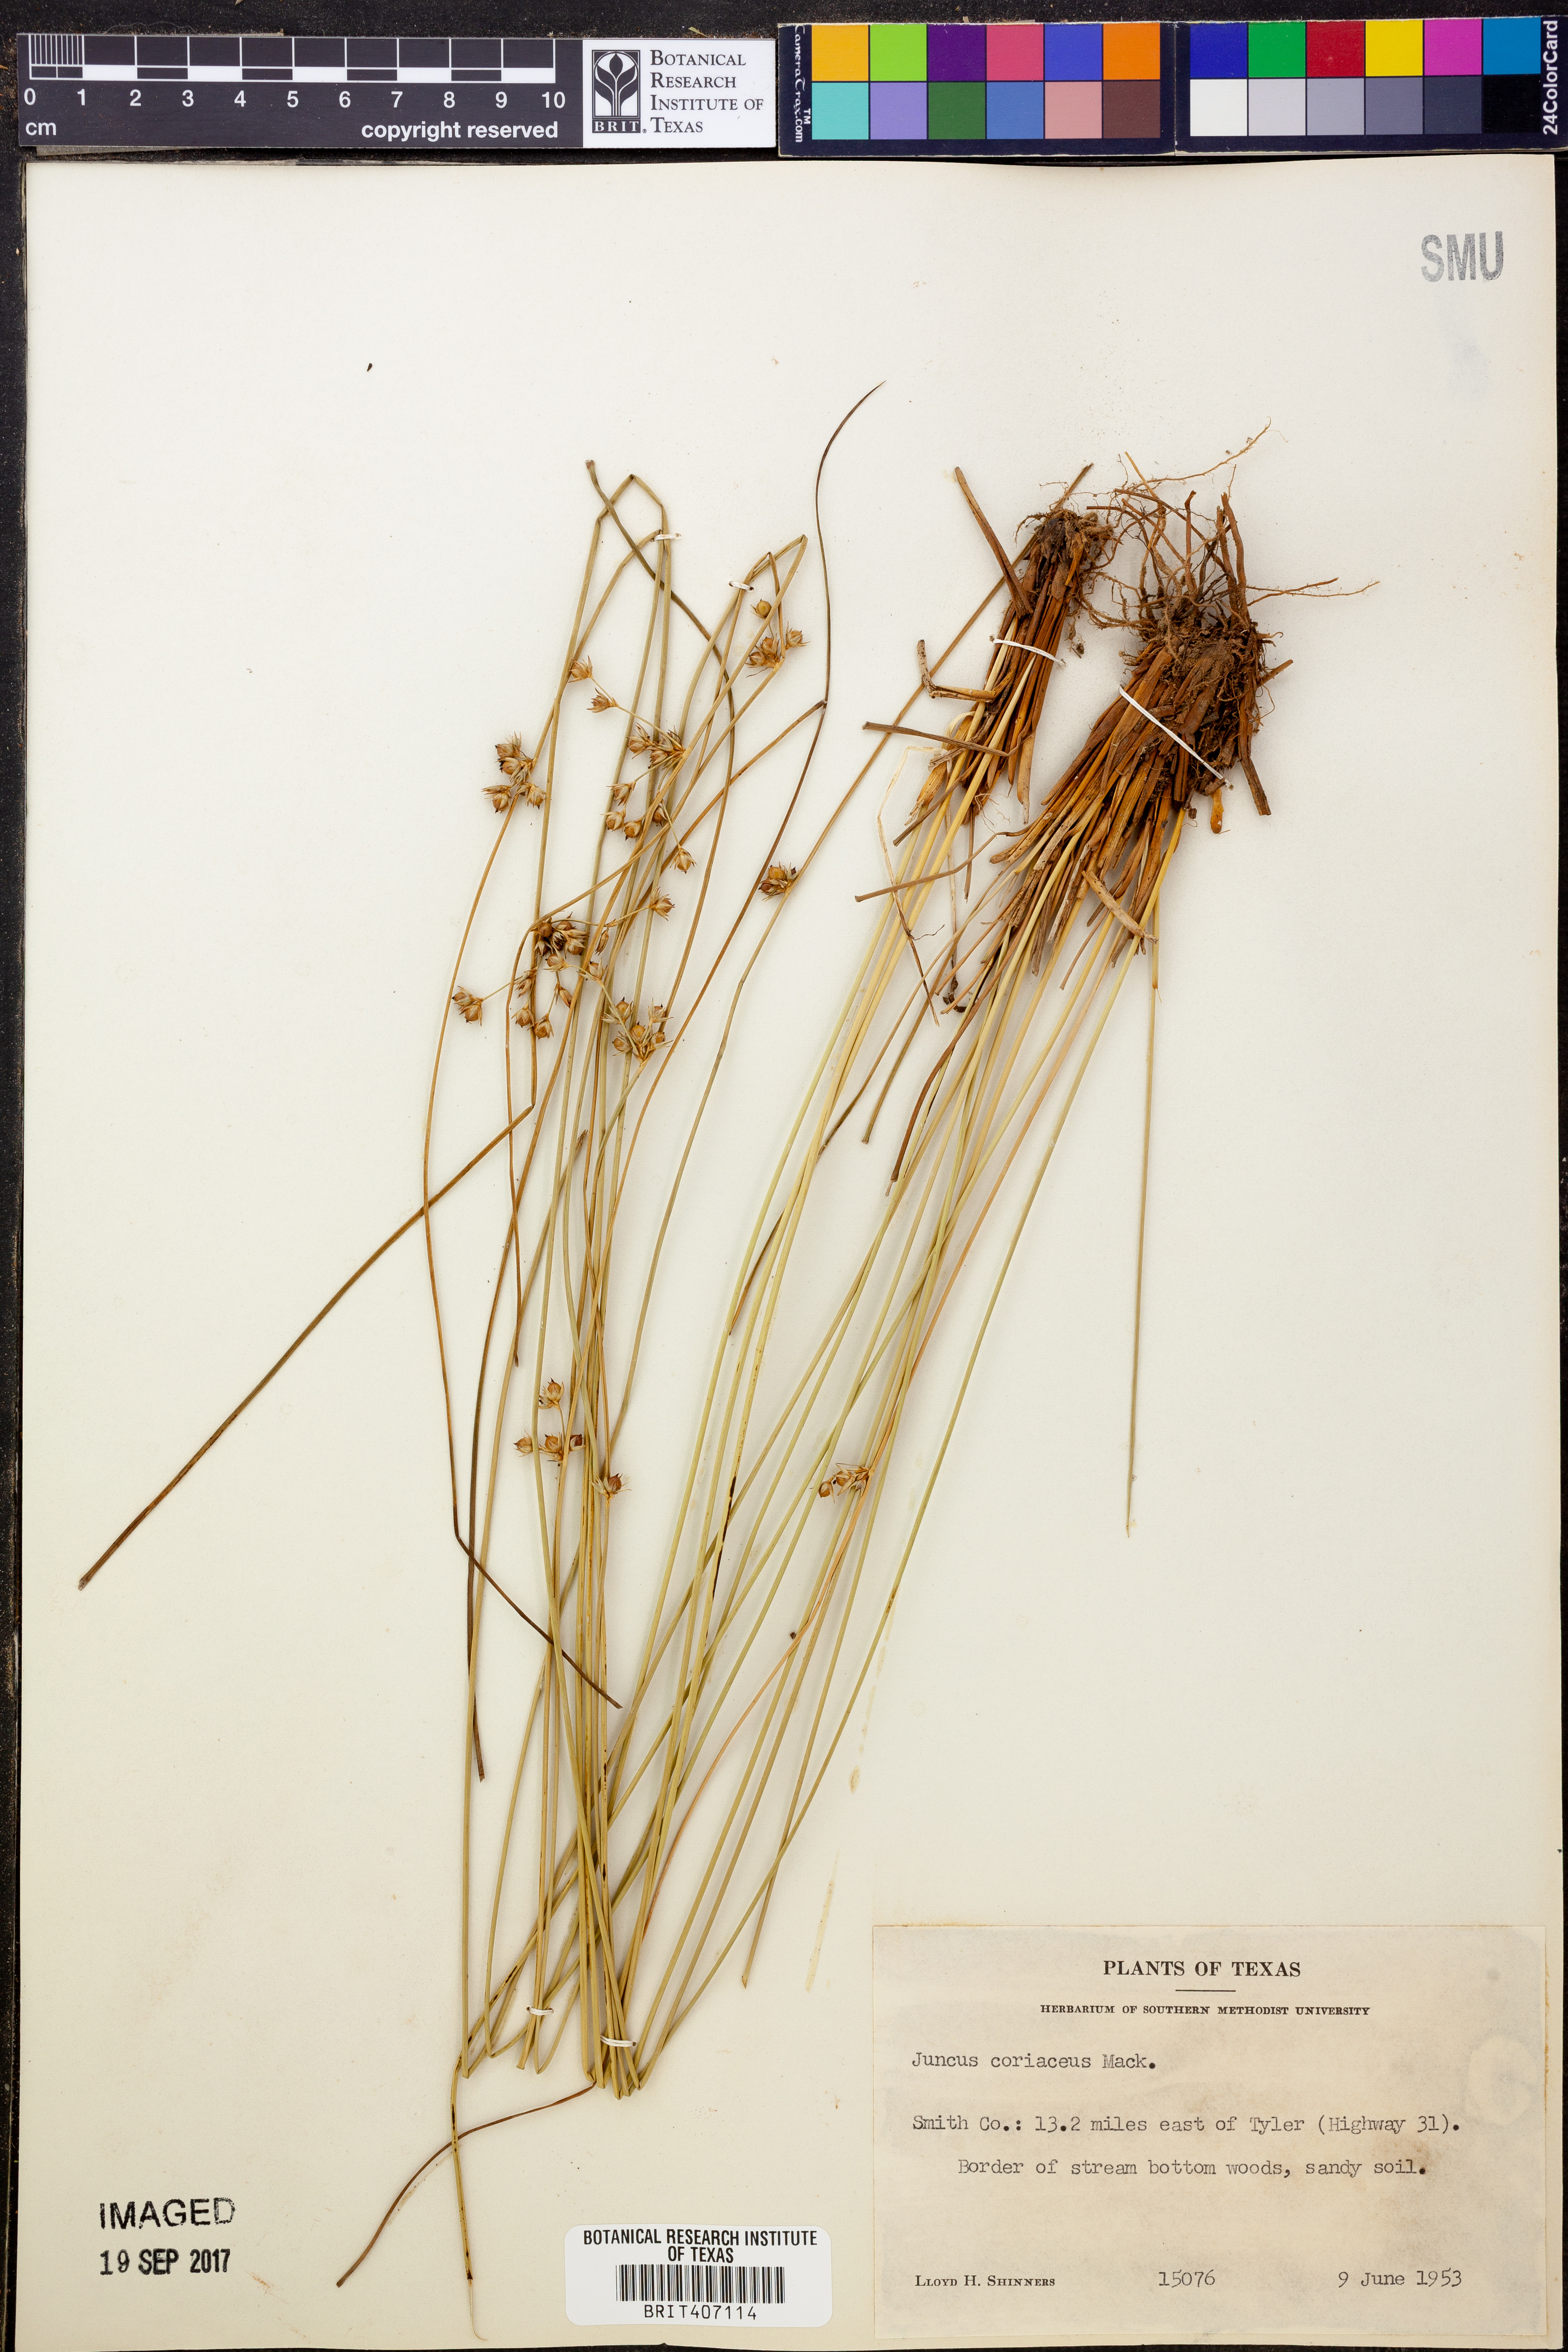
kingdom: Plantae
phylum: Tracheophyta
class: Liliopsida
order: Poales
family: Juncaceae
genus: Juncus
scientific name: Juncus coriaceus
